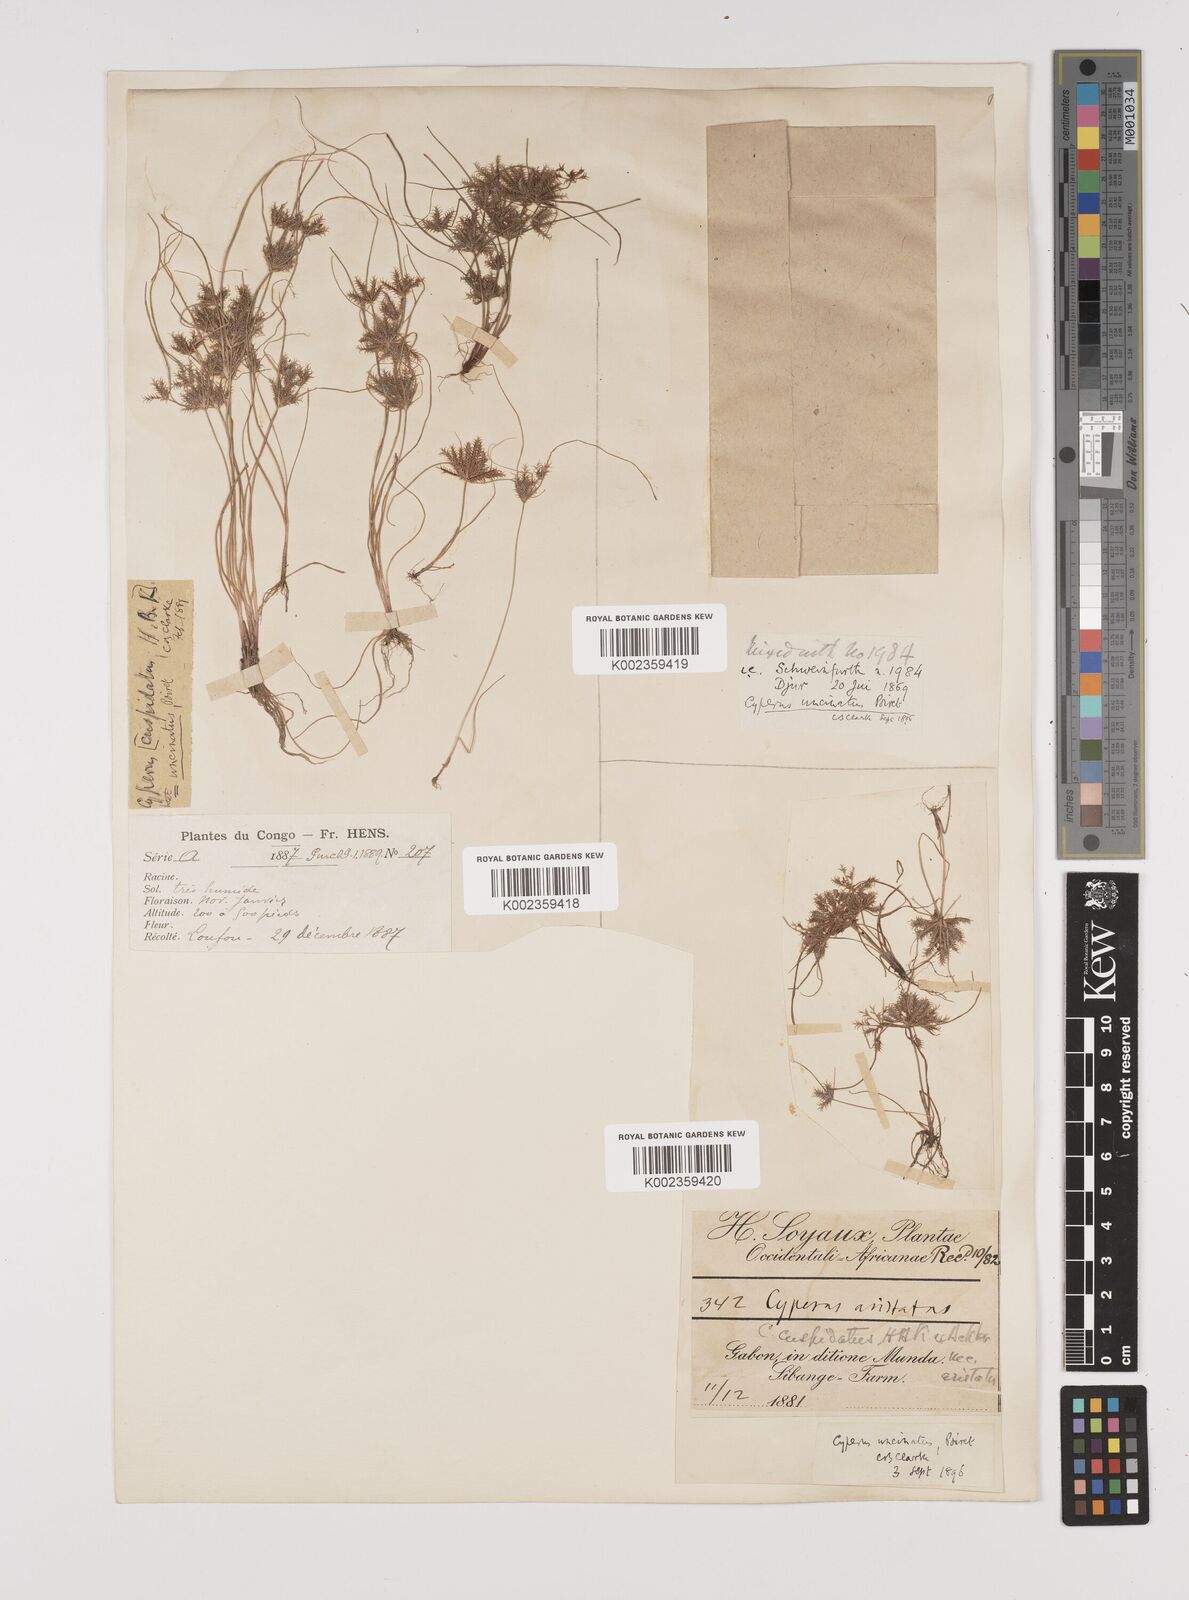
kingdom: Plantae
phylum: Tracheophyta
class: Liliopsida
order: Poales
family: Cyperaceae
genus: Cyperus
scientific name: Cyperus cuspidatus
